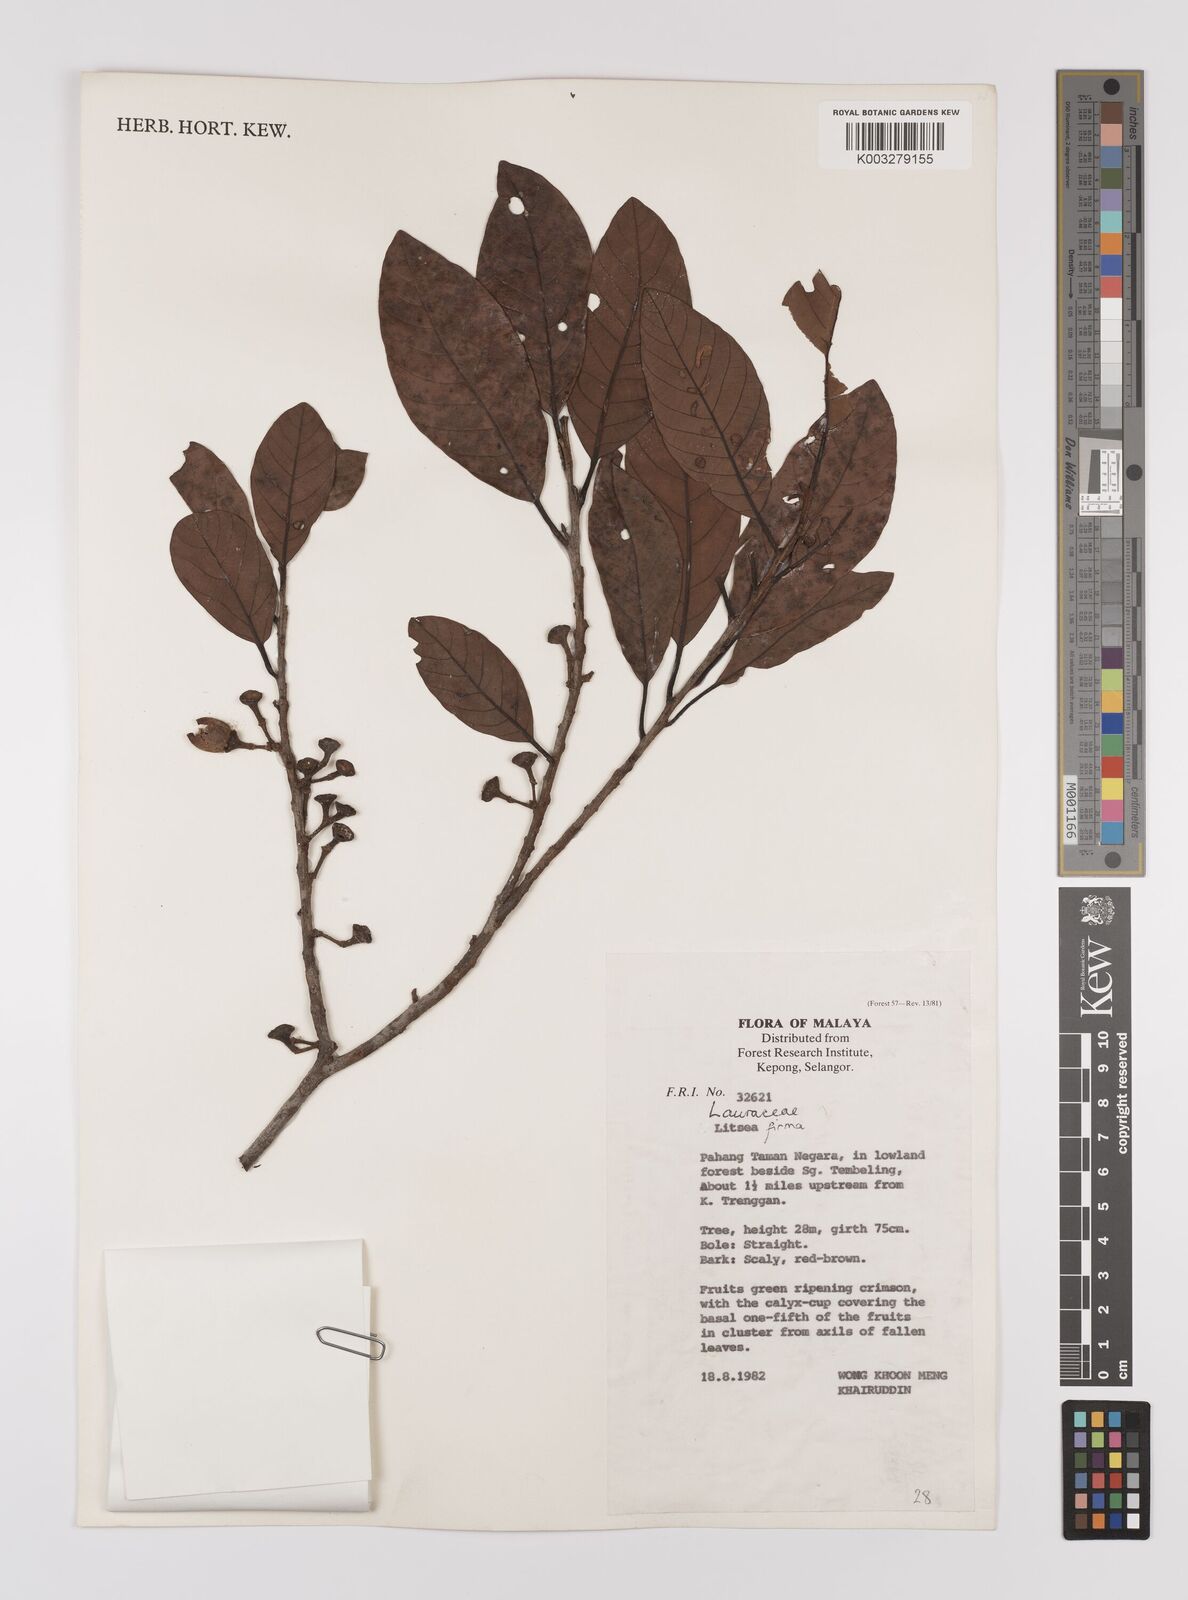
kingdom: Plantae
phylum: Tracheophyta
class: Magnoliopsida
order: Laurales
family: Lauraceae
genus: Litsea
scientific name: Litsea firma
